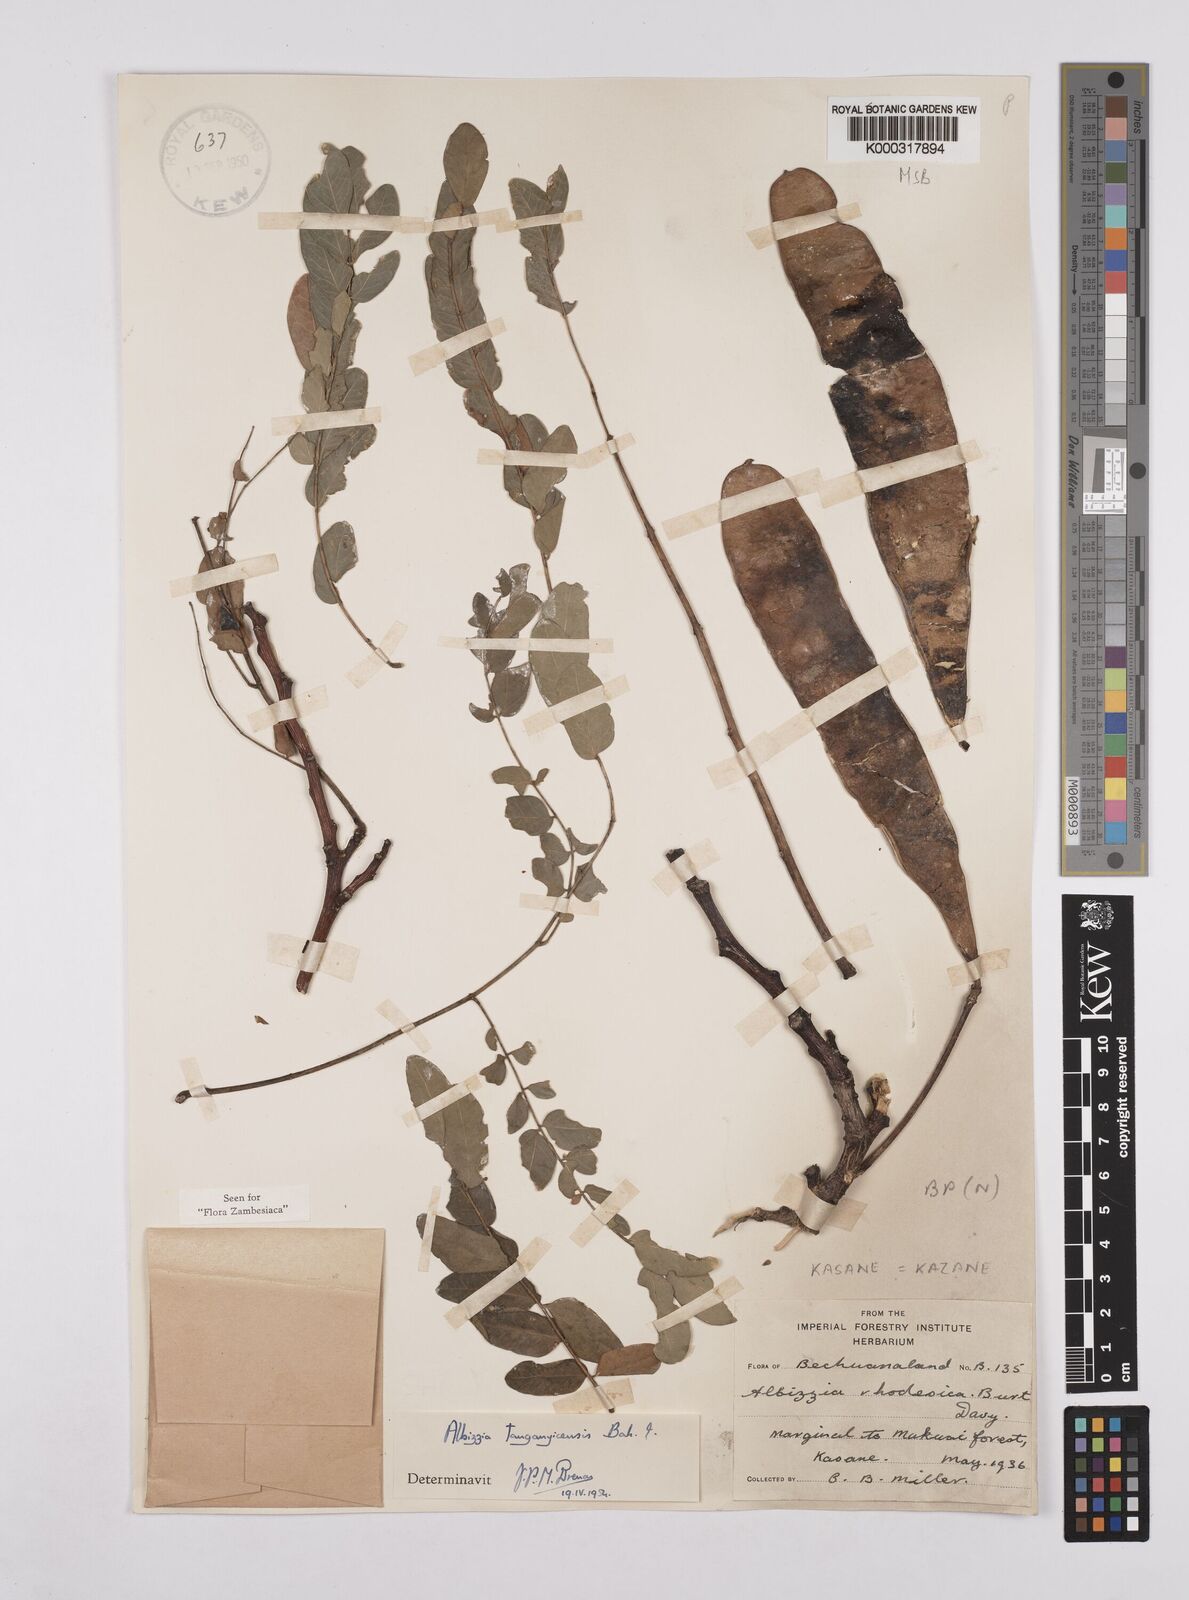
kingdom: Plantae
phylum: Tracheophyta
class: Magnoliopsida
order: Fabales
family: Fabaceae
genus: Albizia
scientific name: Albizia tanganyicensis
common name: Paperbark false thorn
